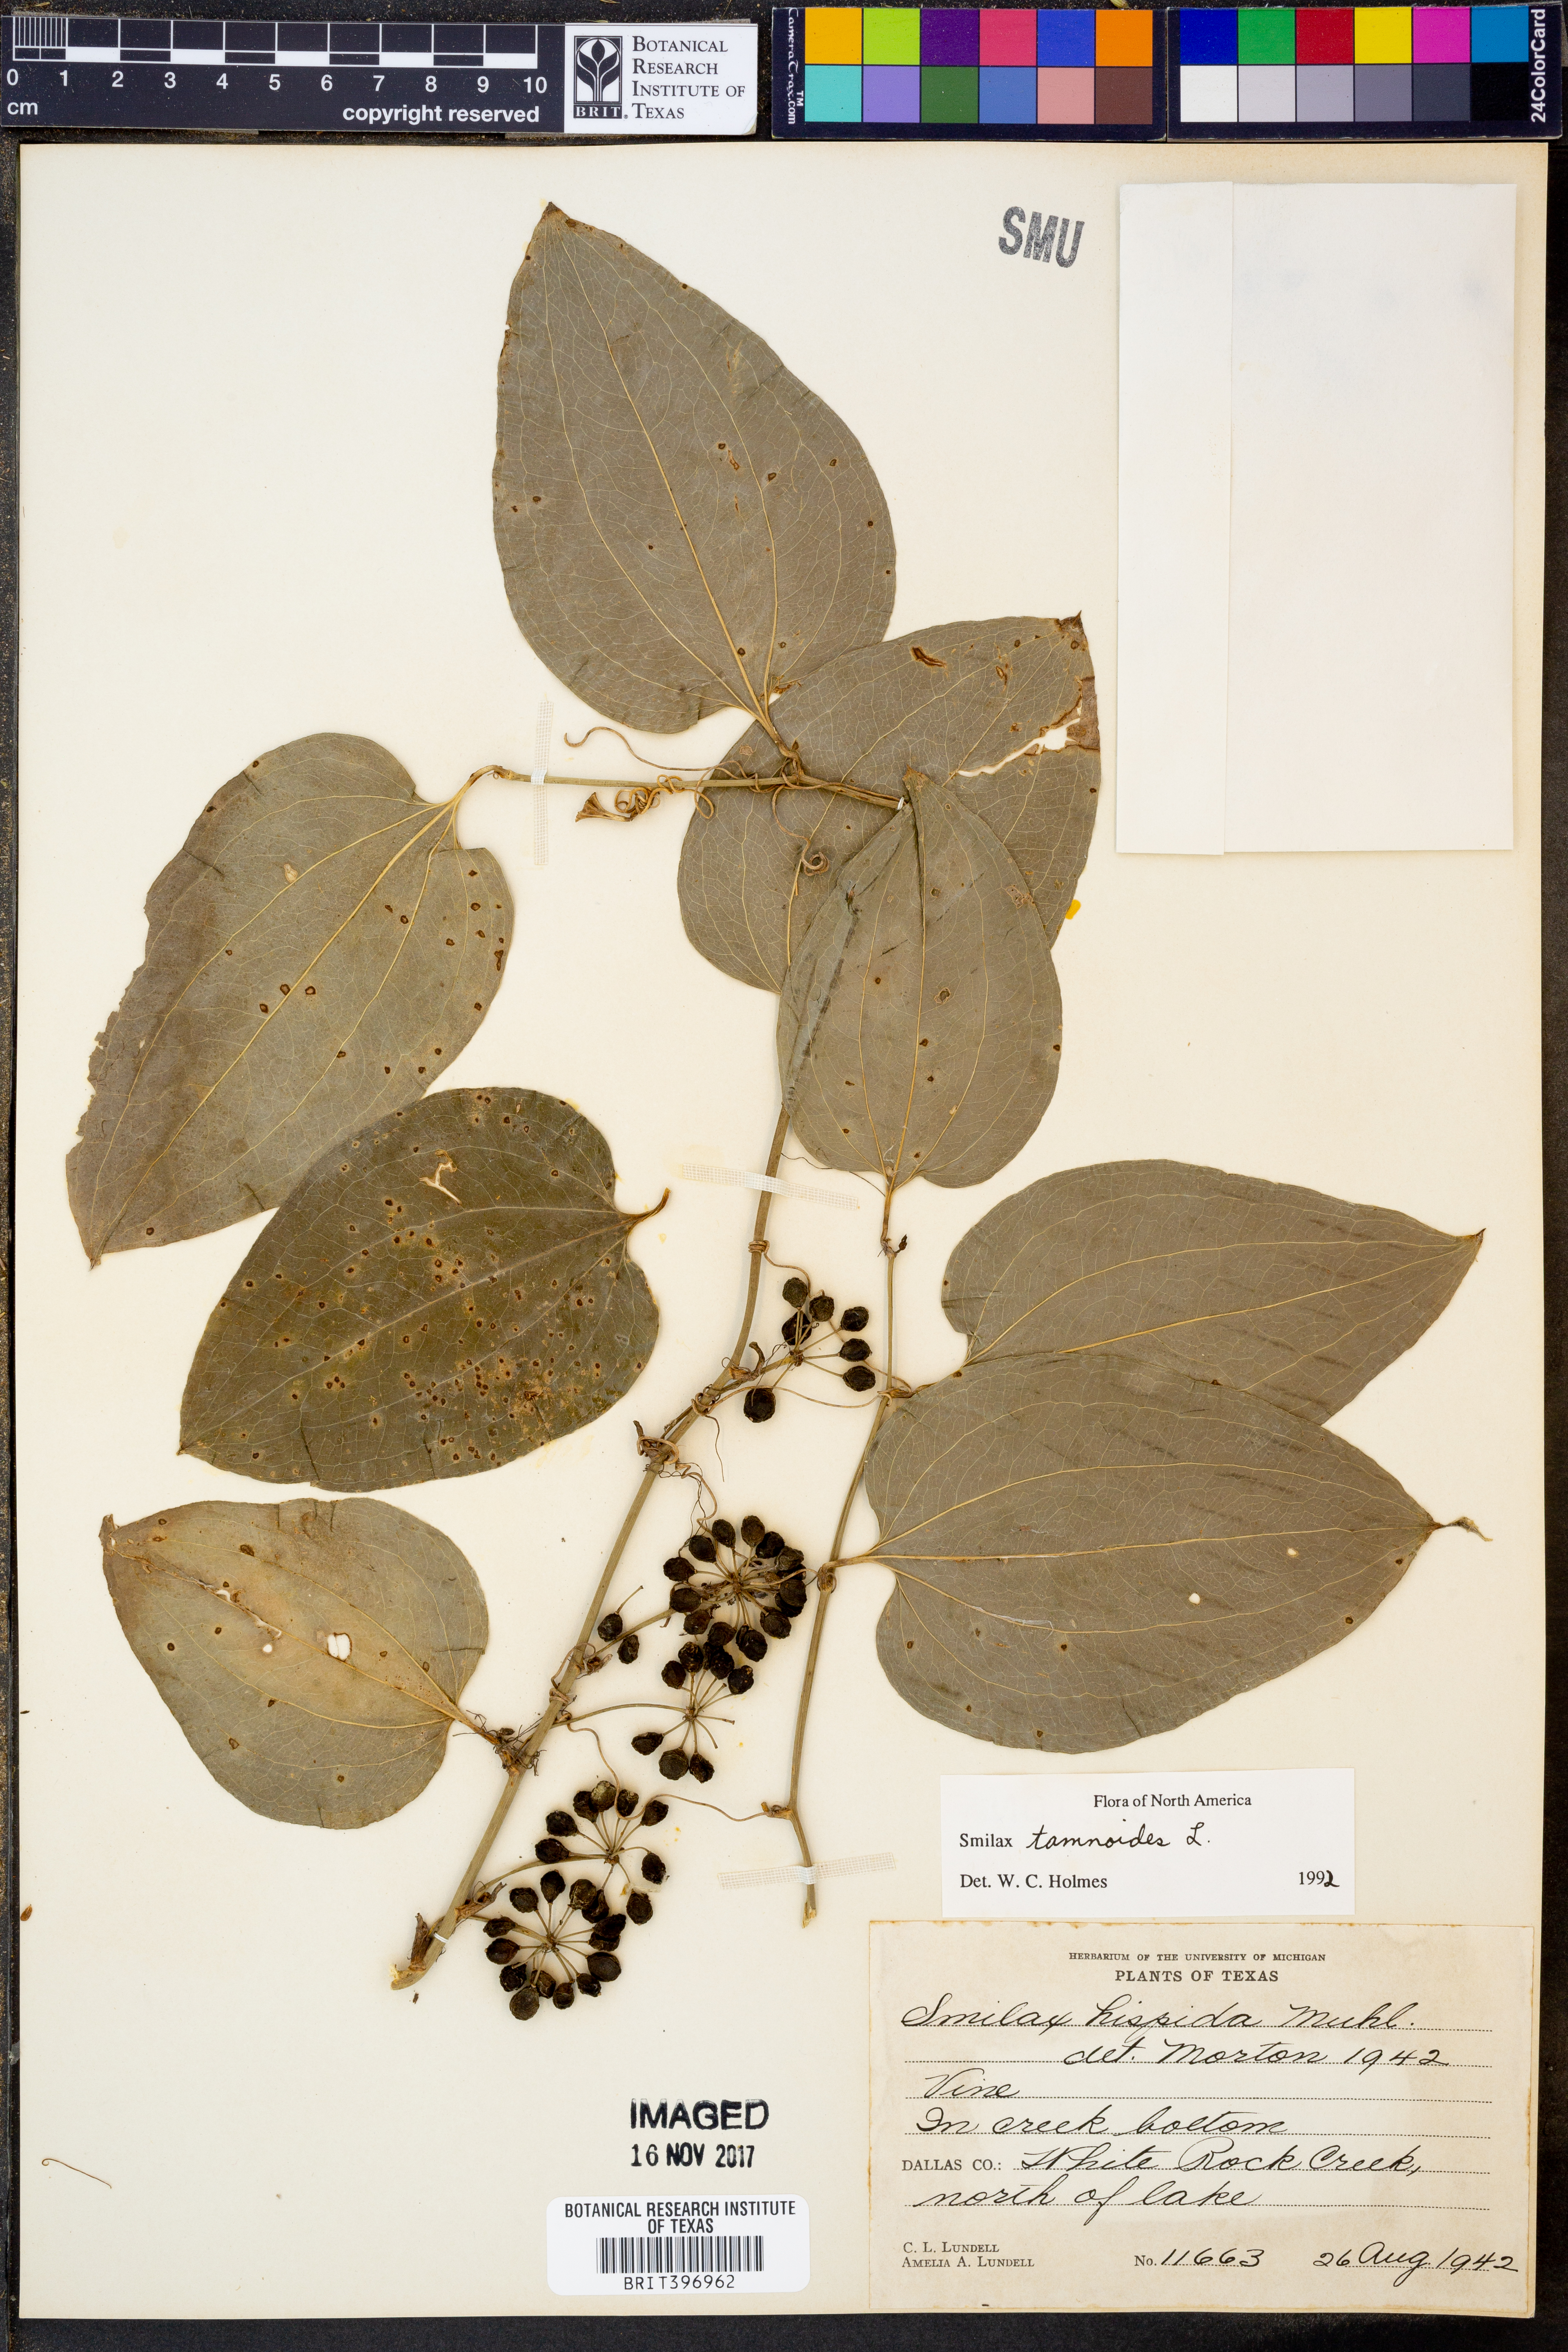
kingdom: Plantae
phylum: Tracheophyta
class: Liliopsida
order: Liliales
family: Smilacaceae
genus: Smilax
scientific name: Smilax tamnoides
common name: Hellfetter
